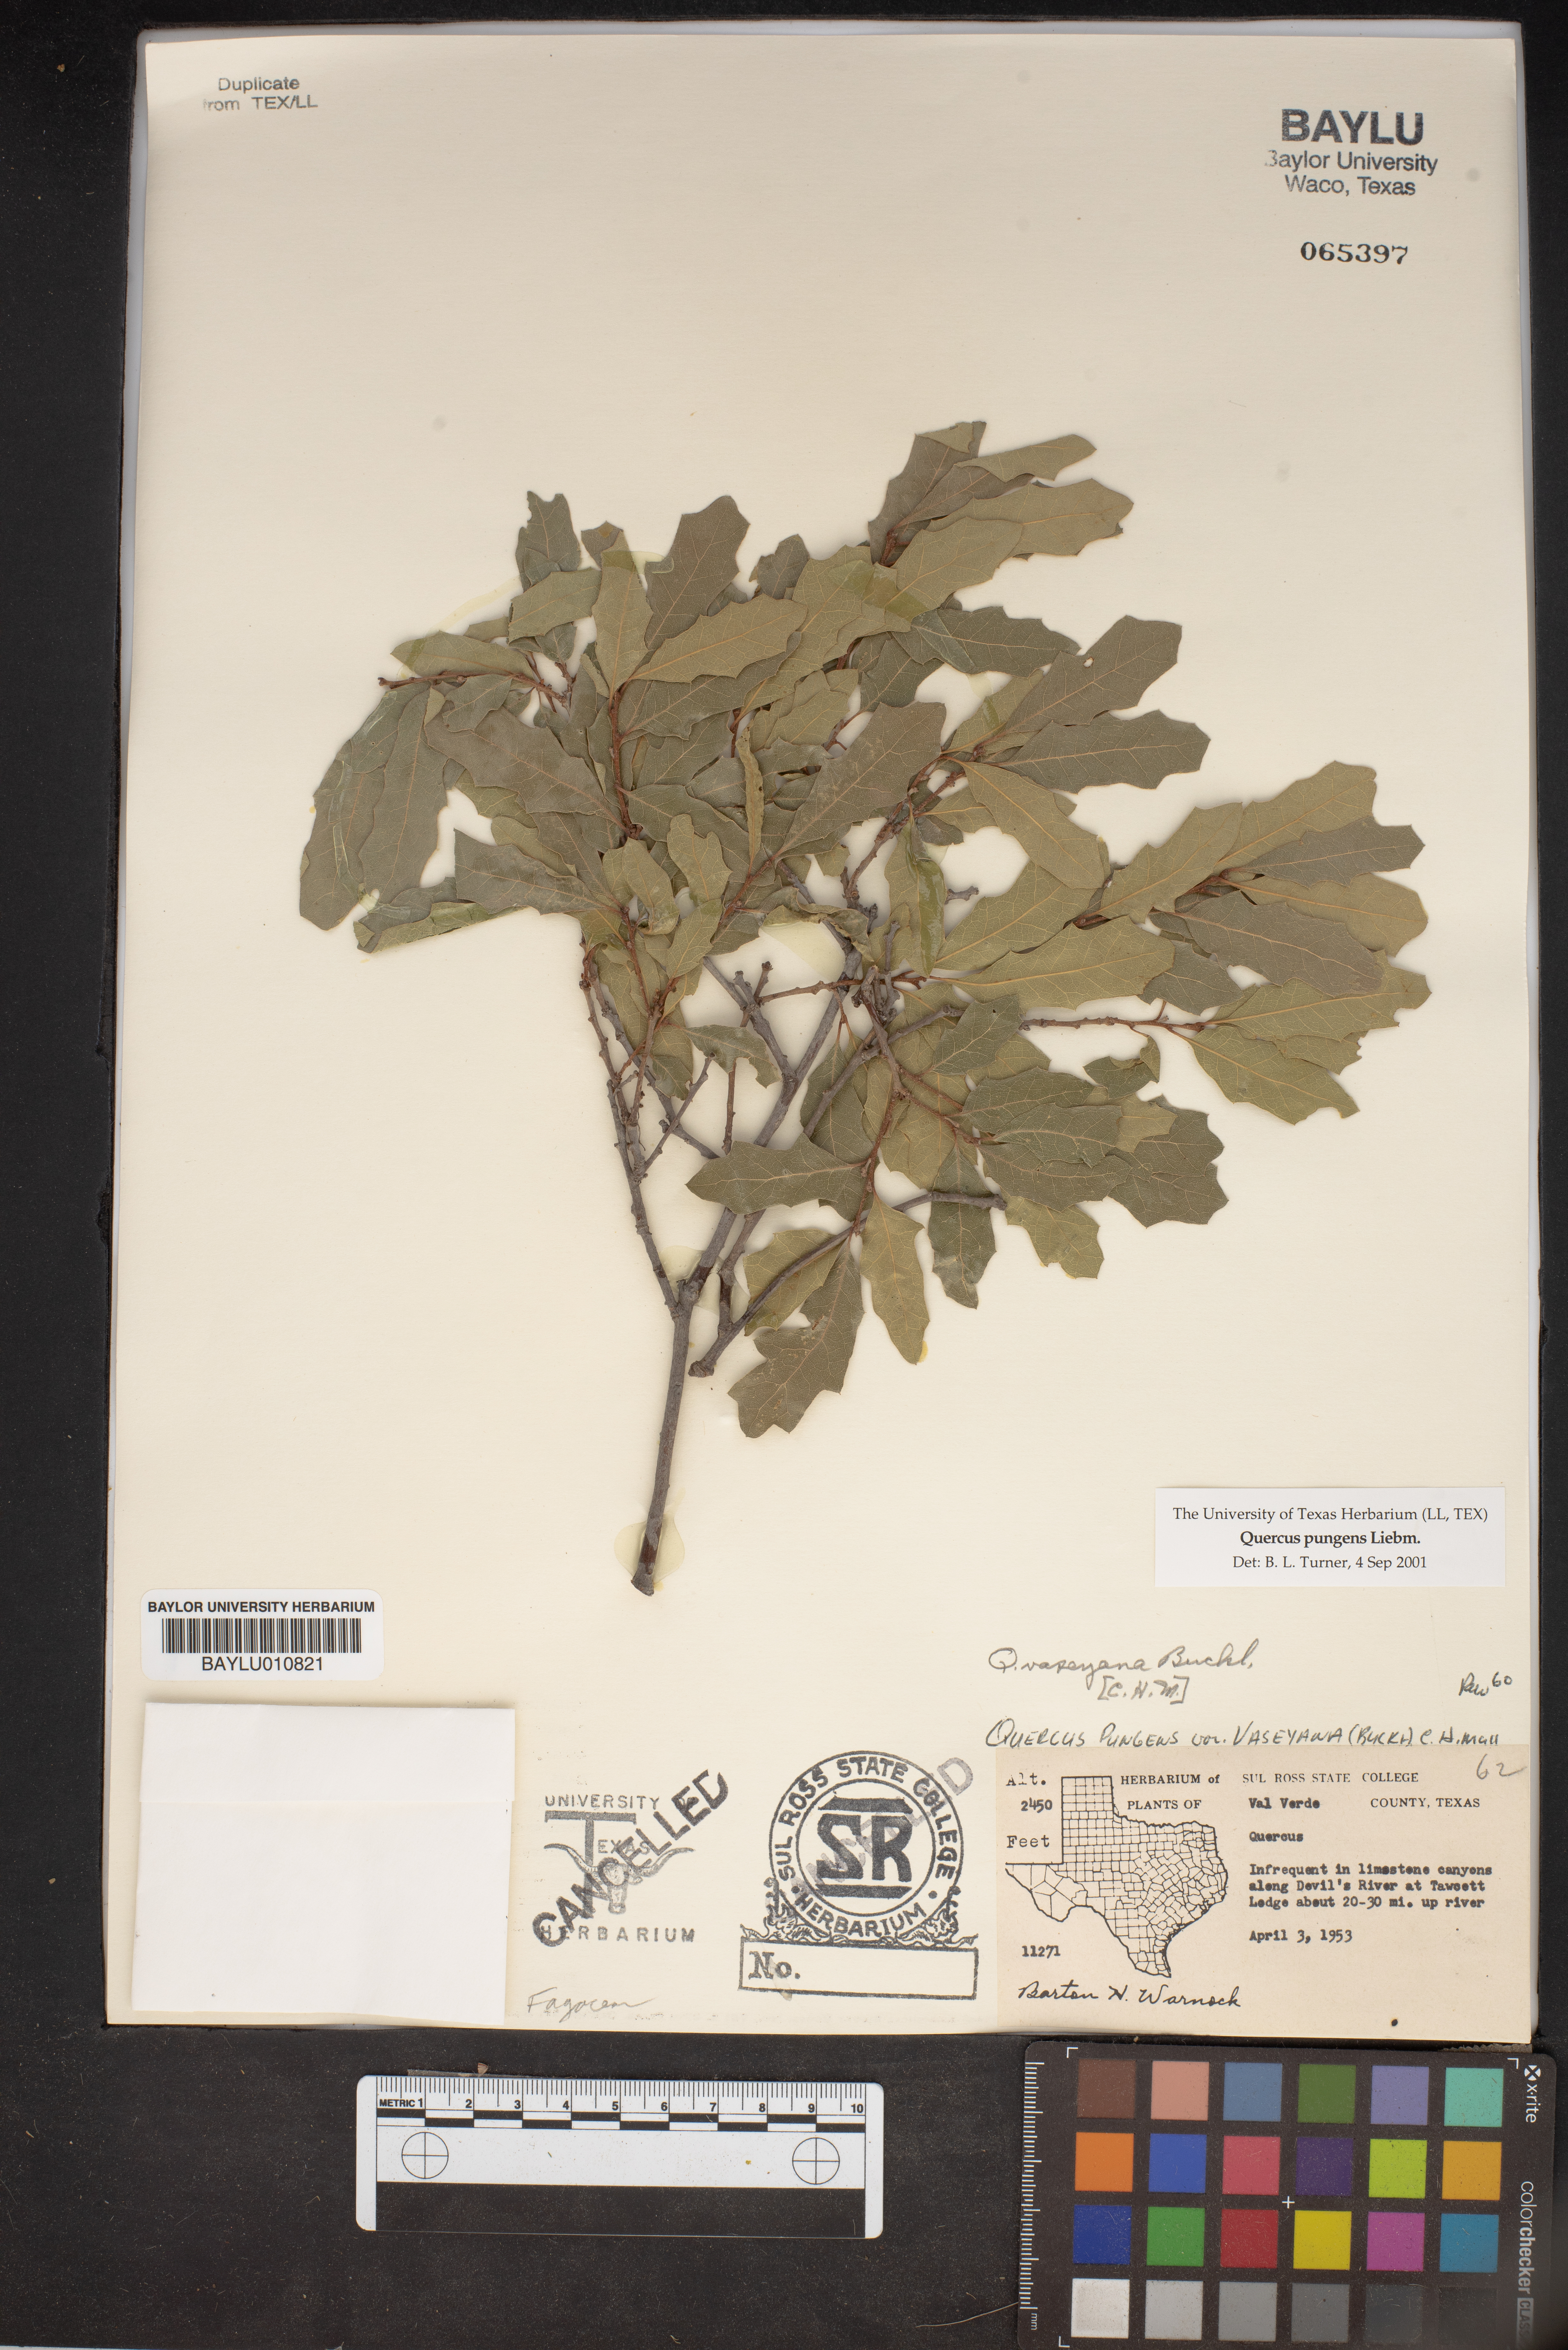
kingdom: Plantae
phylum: Tracheophyta
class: Magnoliopsida
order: Fagales
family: Fagaceae
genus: Quercus
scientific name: Quercus pungens
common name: Pungent oak
